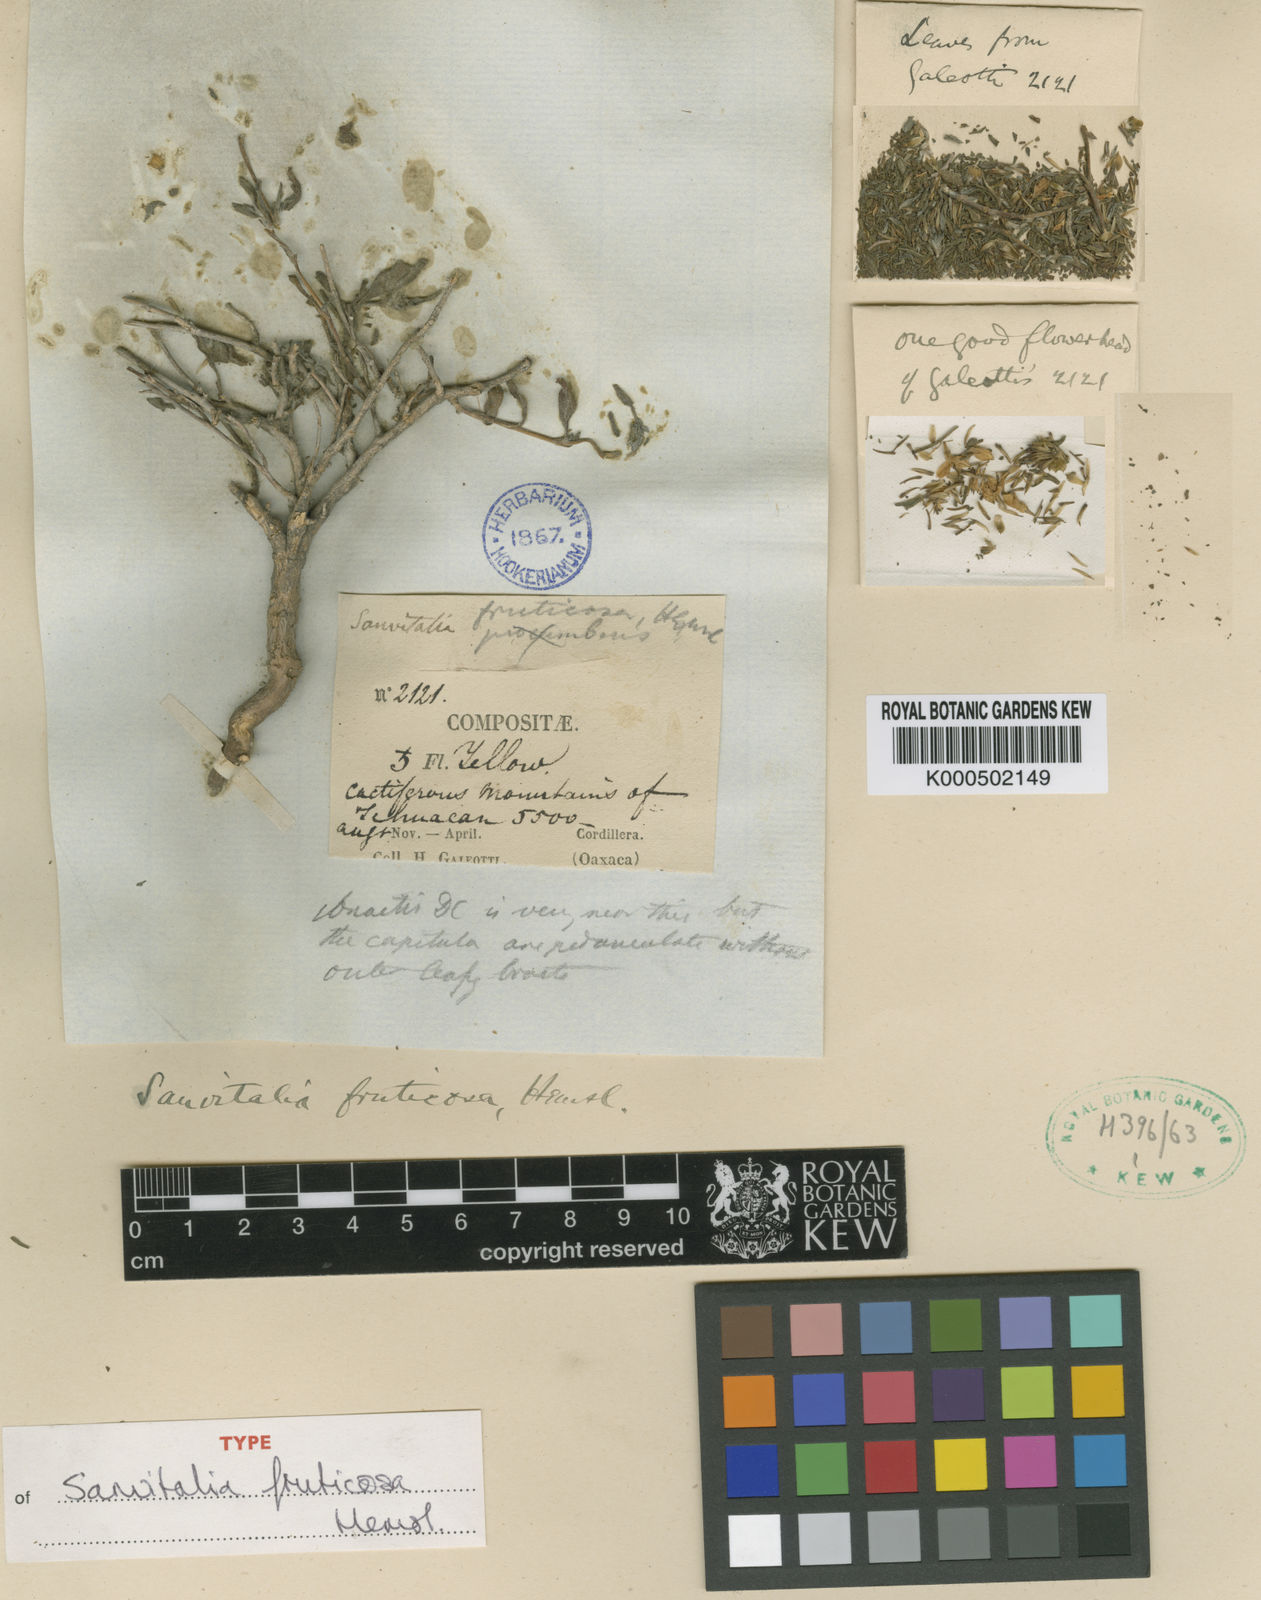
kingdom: Plantae
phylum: Tracheophyta
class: Magnoliopsida
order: Asterales
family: Asteraceae
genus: Sanvitalia
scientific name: Sanvitalia fruticosa
